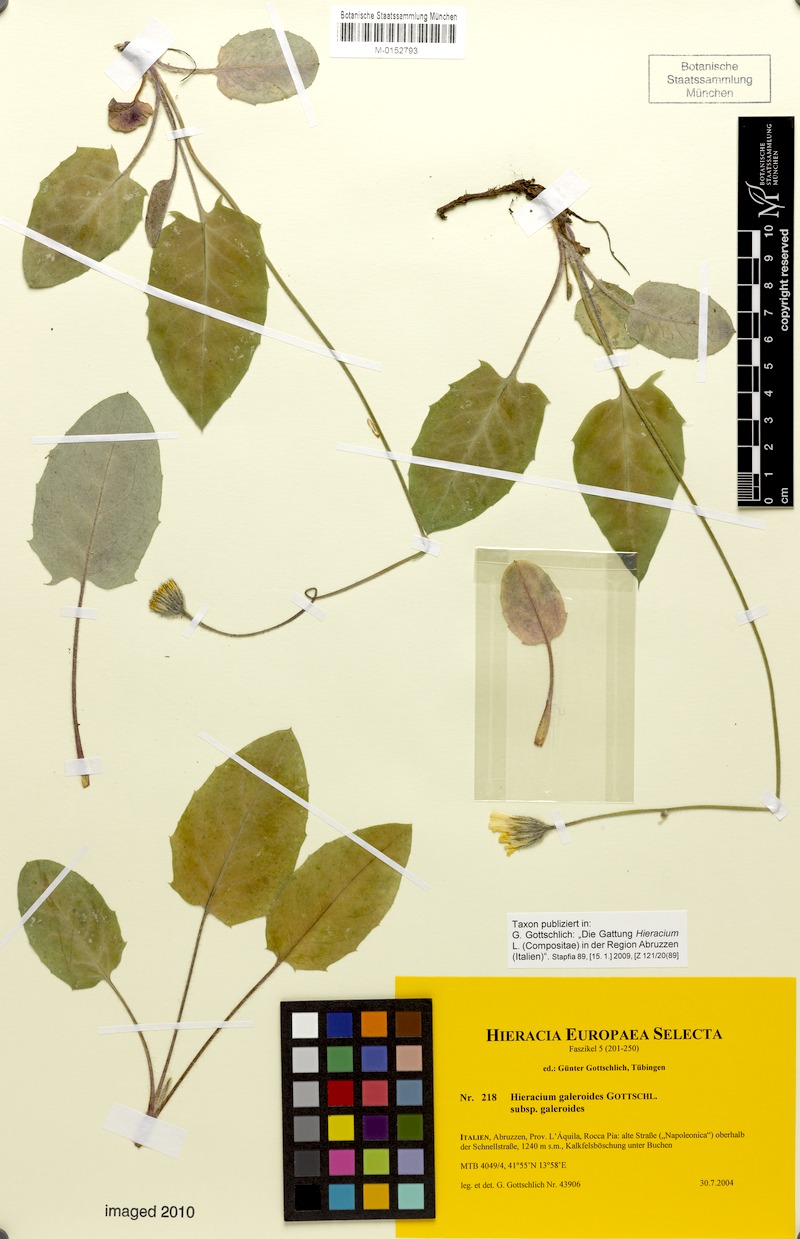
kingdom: Plantae
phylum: Tracheophyta
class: Magnoliopsida
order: Asterales
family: Asteraceae
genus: Hieracium
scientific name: Hieracium galeroides
